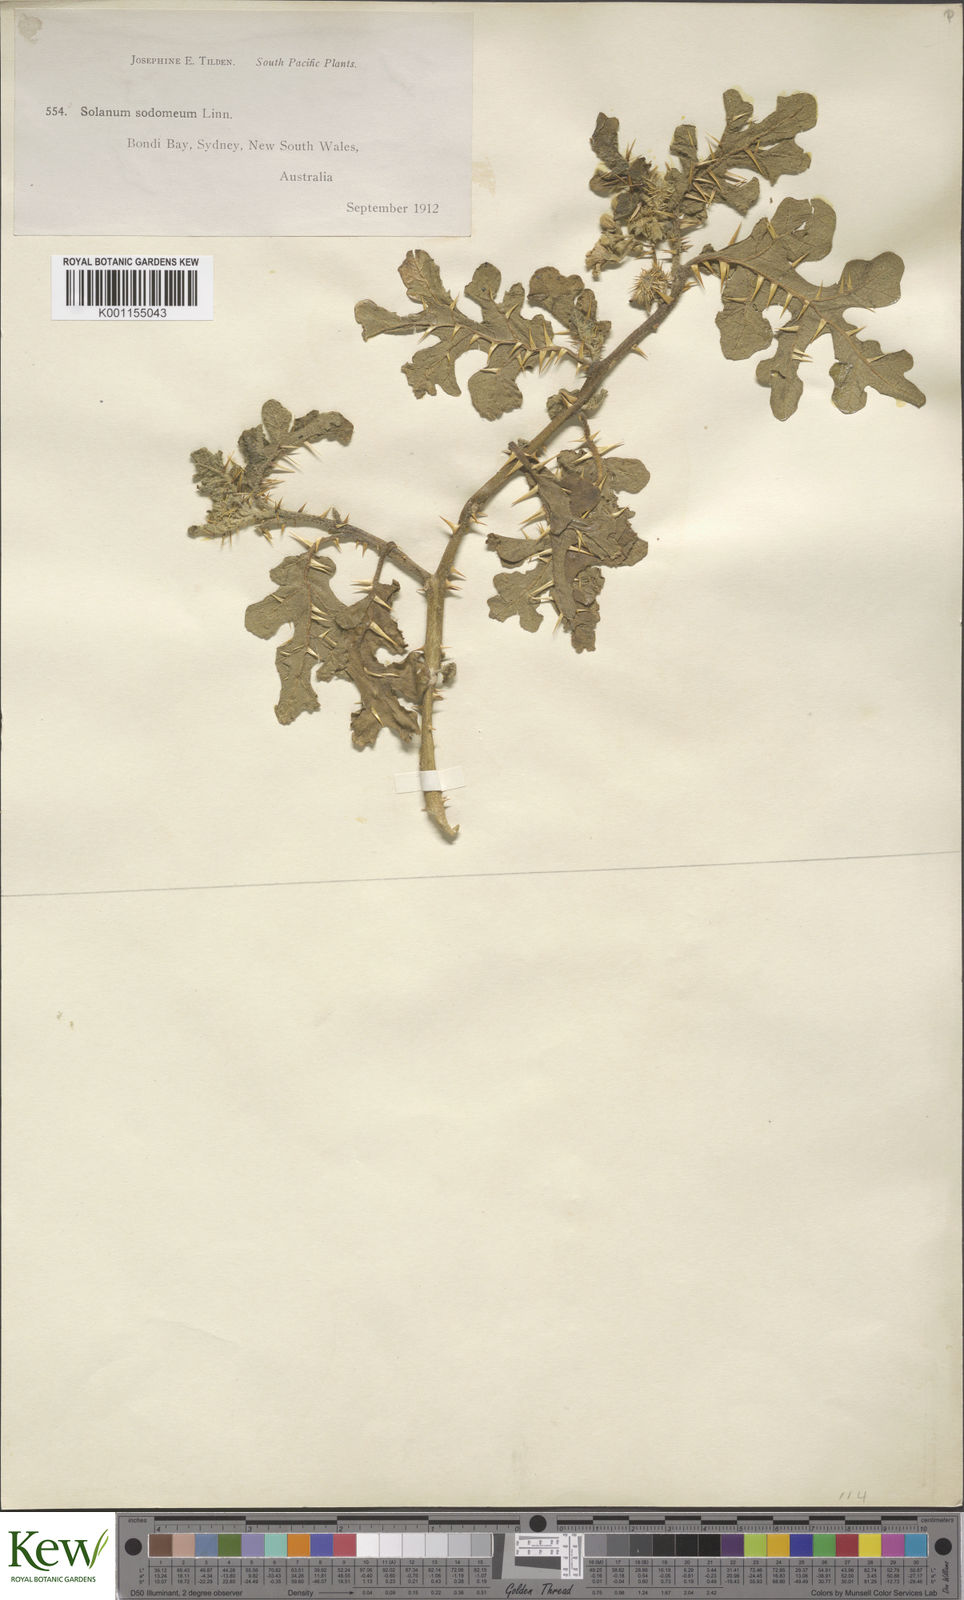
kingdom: Plantae
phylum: Tracheophyta
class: Magnoliopsida
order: Solanales
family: Solanaceae
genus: Solanum
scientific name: Solanum anguivi
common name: Forest bitterberry
